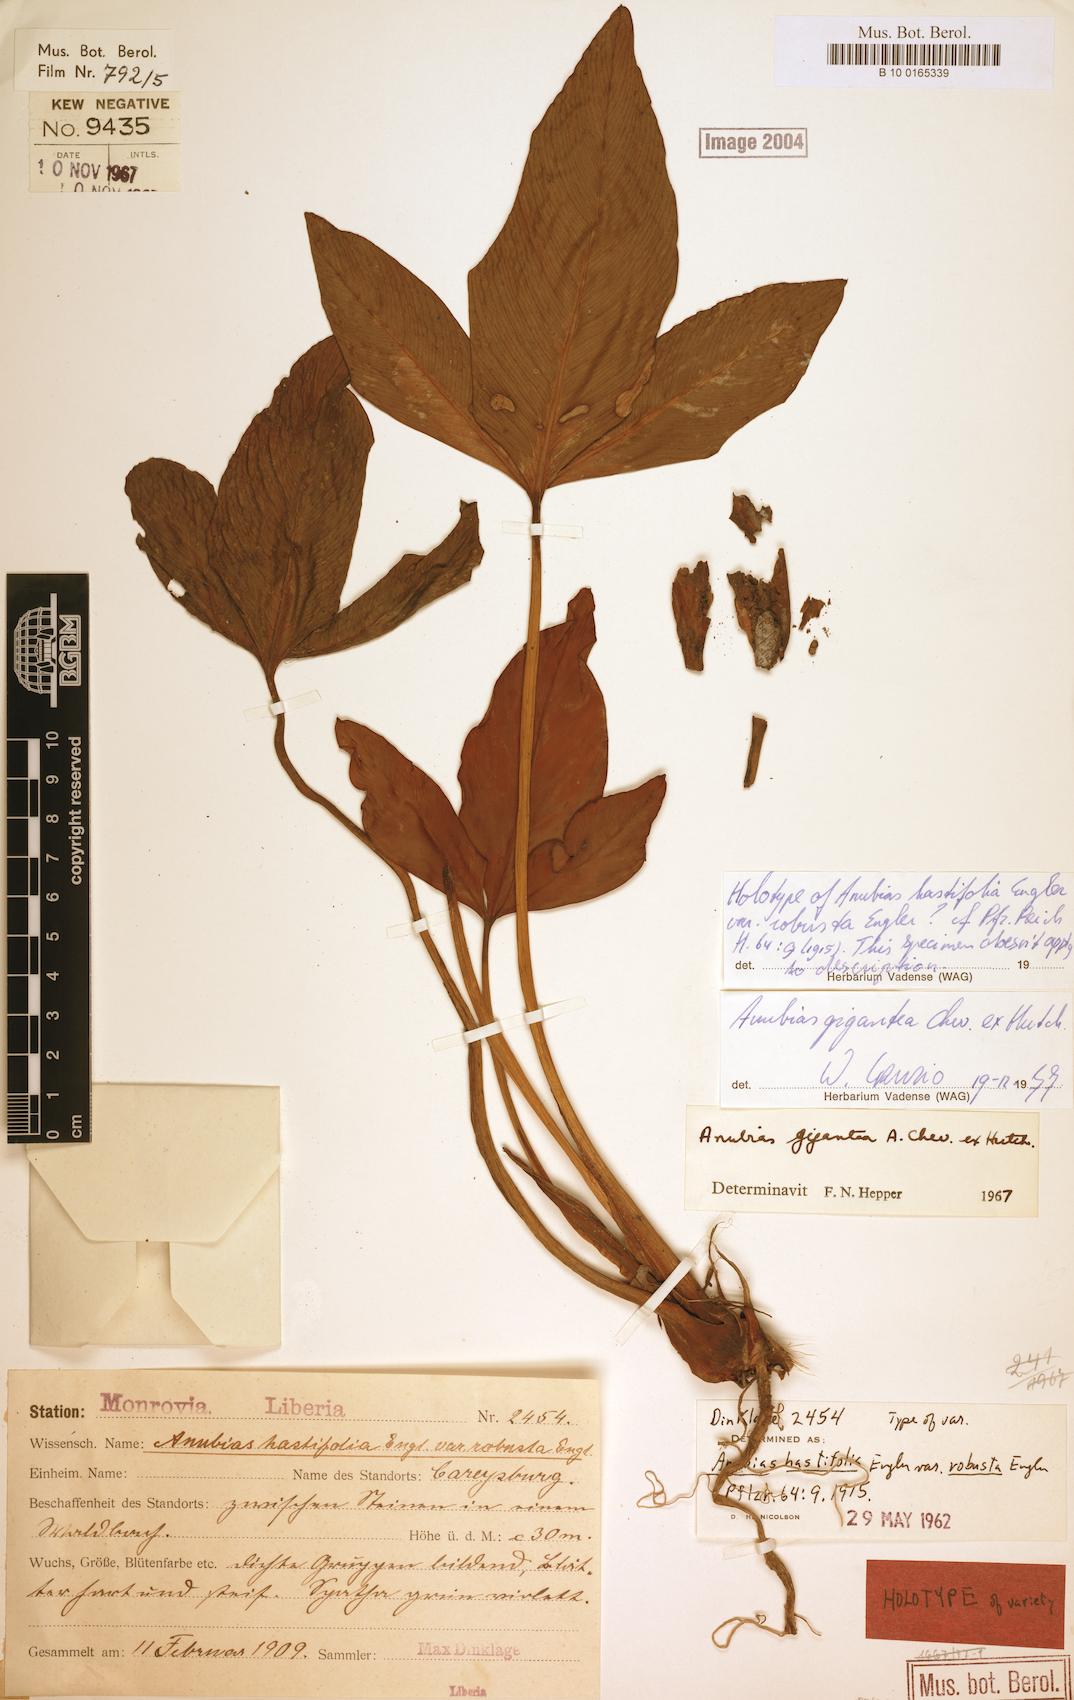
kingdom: Plantae
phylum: Tracheophyta
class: Liliopsida
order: Alismatales
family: Araceae
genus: Anubias
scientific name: Anubias gigantea
